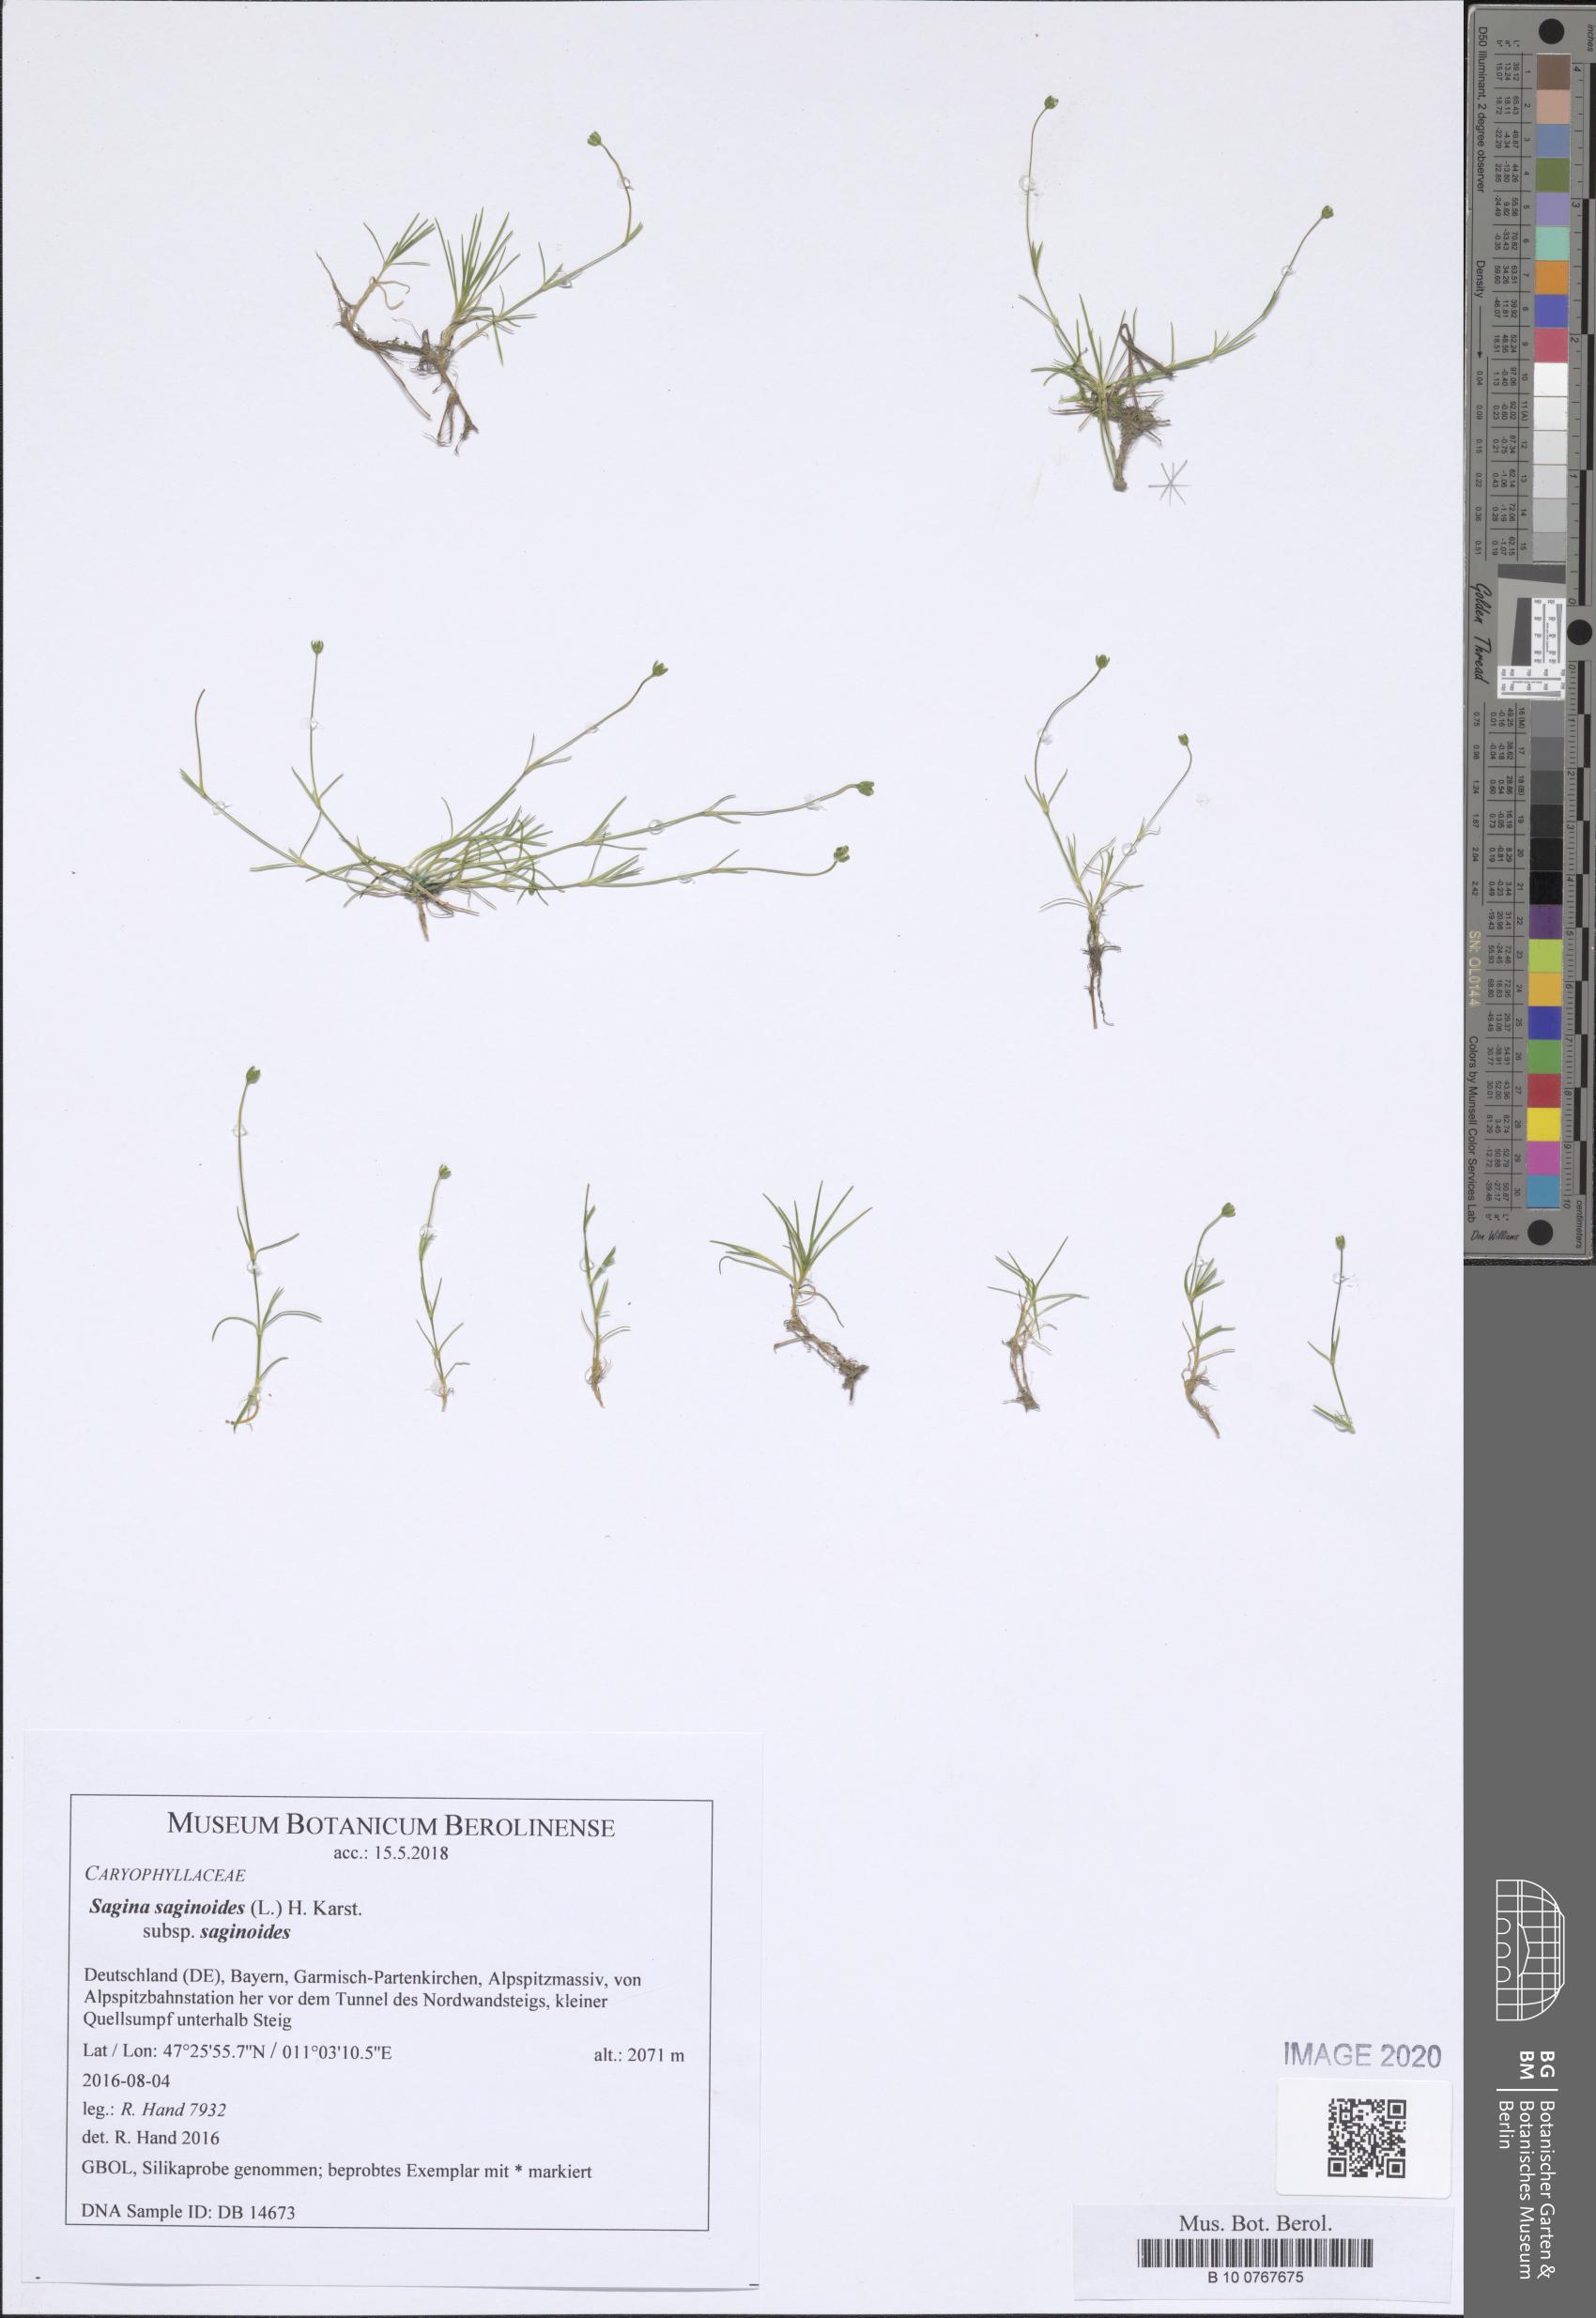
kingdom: Plantae
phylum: Tracheophyta
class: Magnoliopsida
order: Caryophyllales
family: Caryophyllaceae
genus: Sagina
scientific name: Sagina saginoides
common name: Alpine pearlwort
